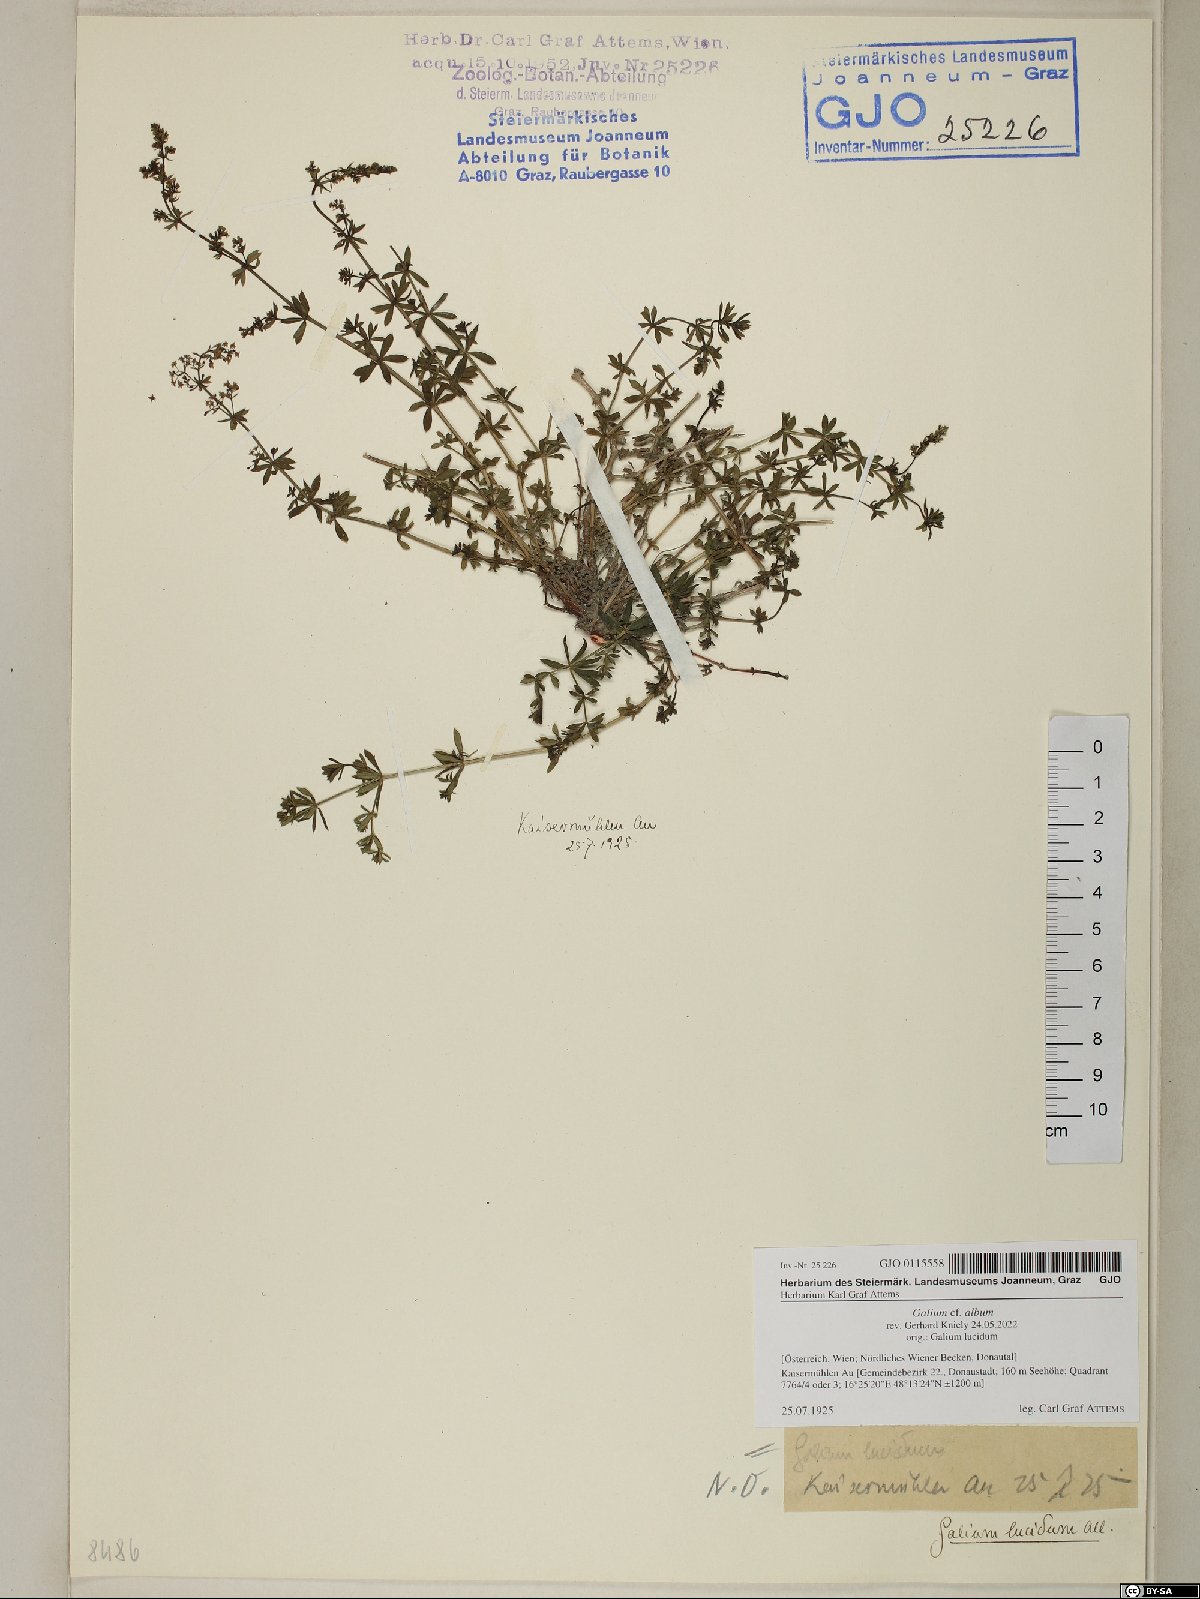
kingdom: Plantae
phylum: Tracheophyta
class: Magnoliopsida
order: Gentianales
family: Rubiaceae
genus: Galium
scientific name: Galium album
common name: White bedstraw
